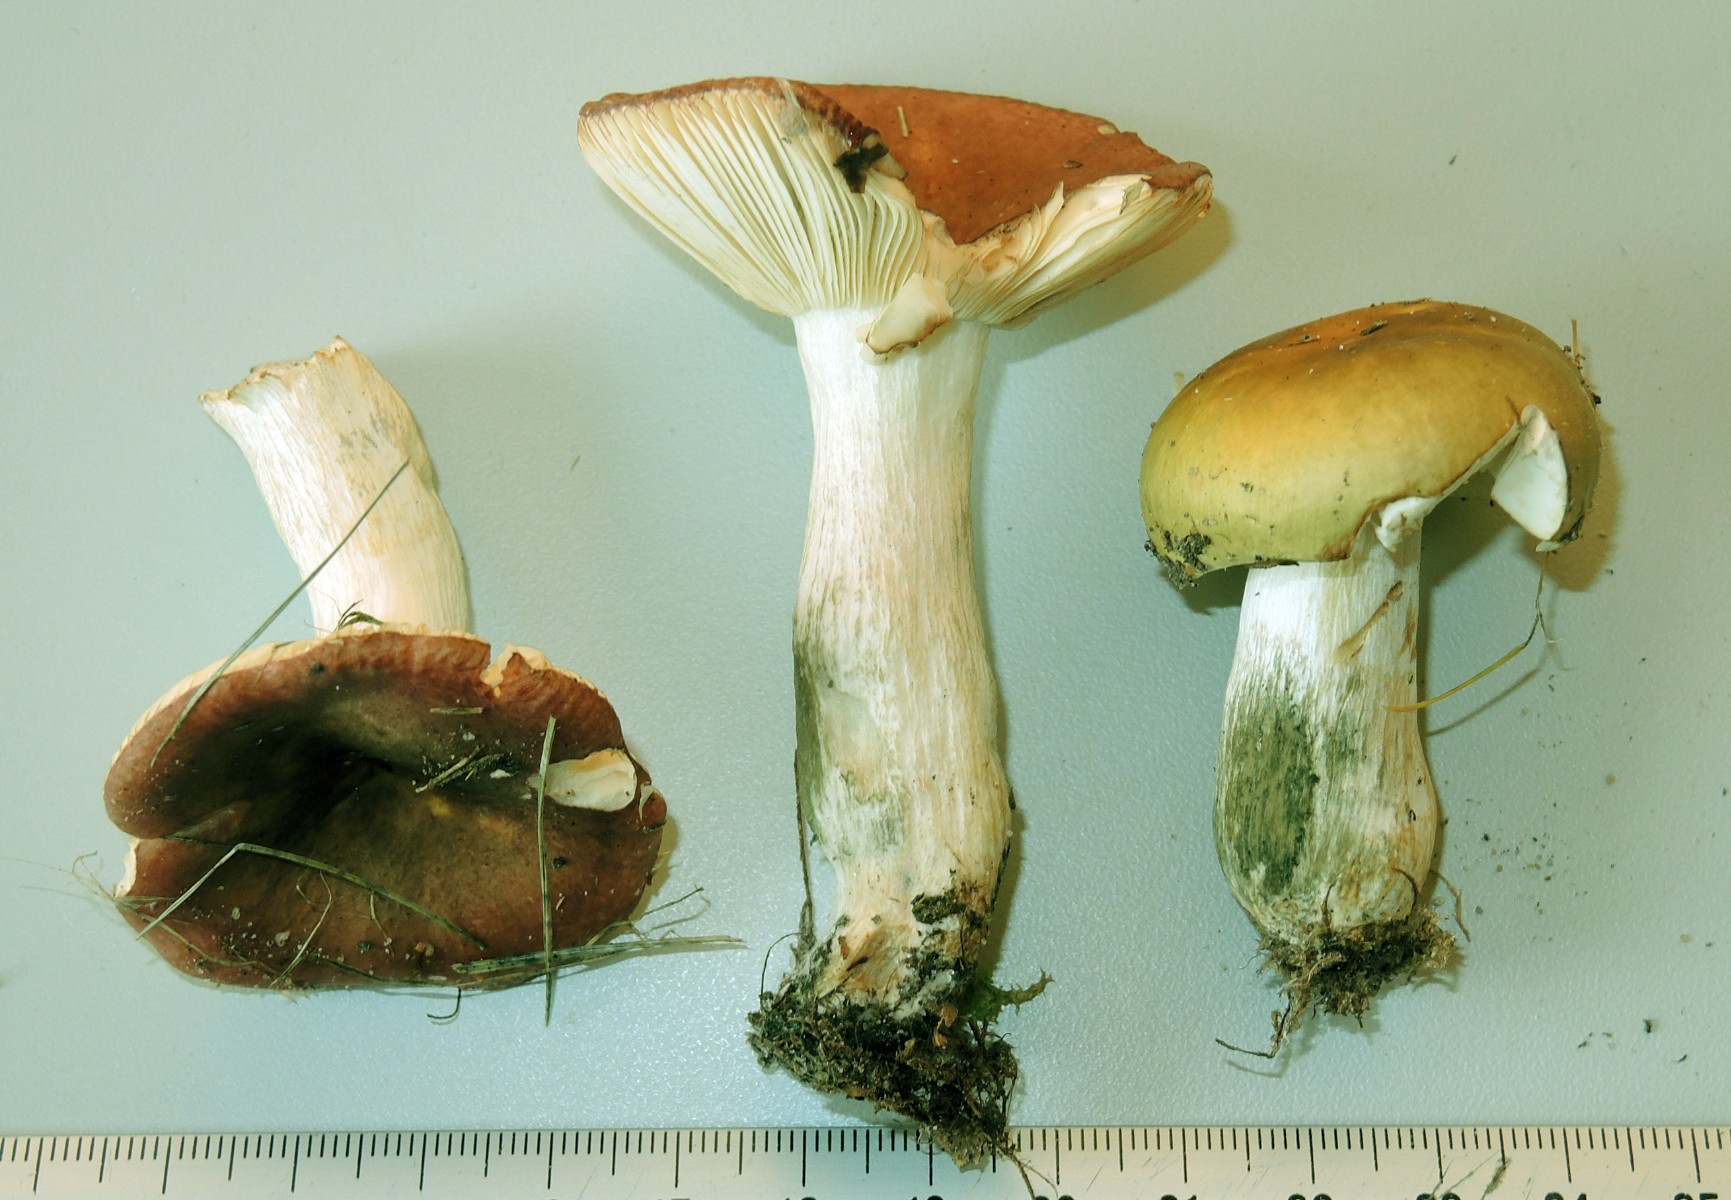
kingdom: Fungi
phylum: Basidiomycota
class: Agaricomycetes
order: Russulales
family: Russulaceae
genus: Russula
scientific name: Russula
